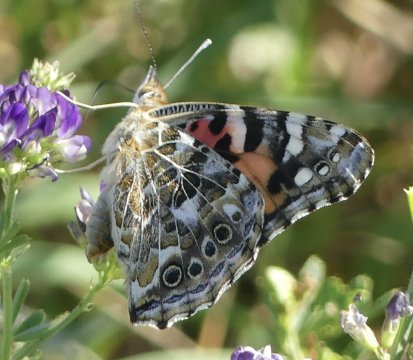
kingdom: Animalia
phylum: Arthropoda
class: Insecta
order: Lepidoptera
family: Nymphalidae
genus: Vanessa
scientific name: Vanessa cardui
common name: Painted Lady
